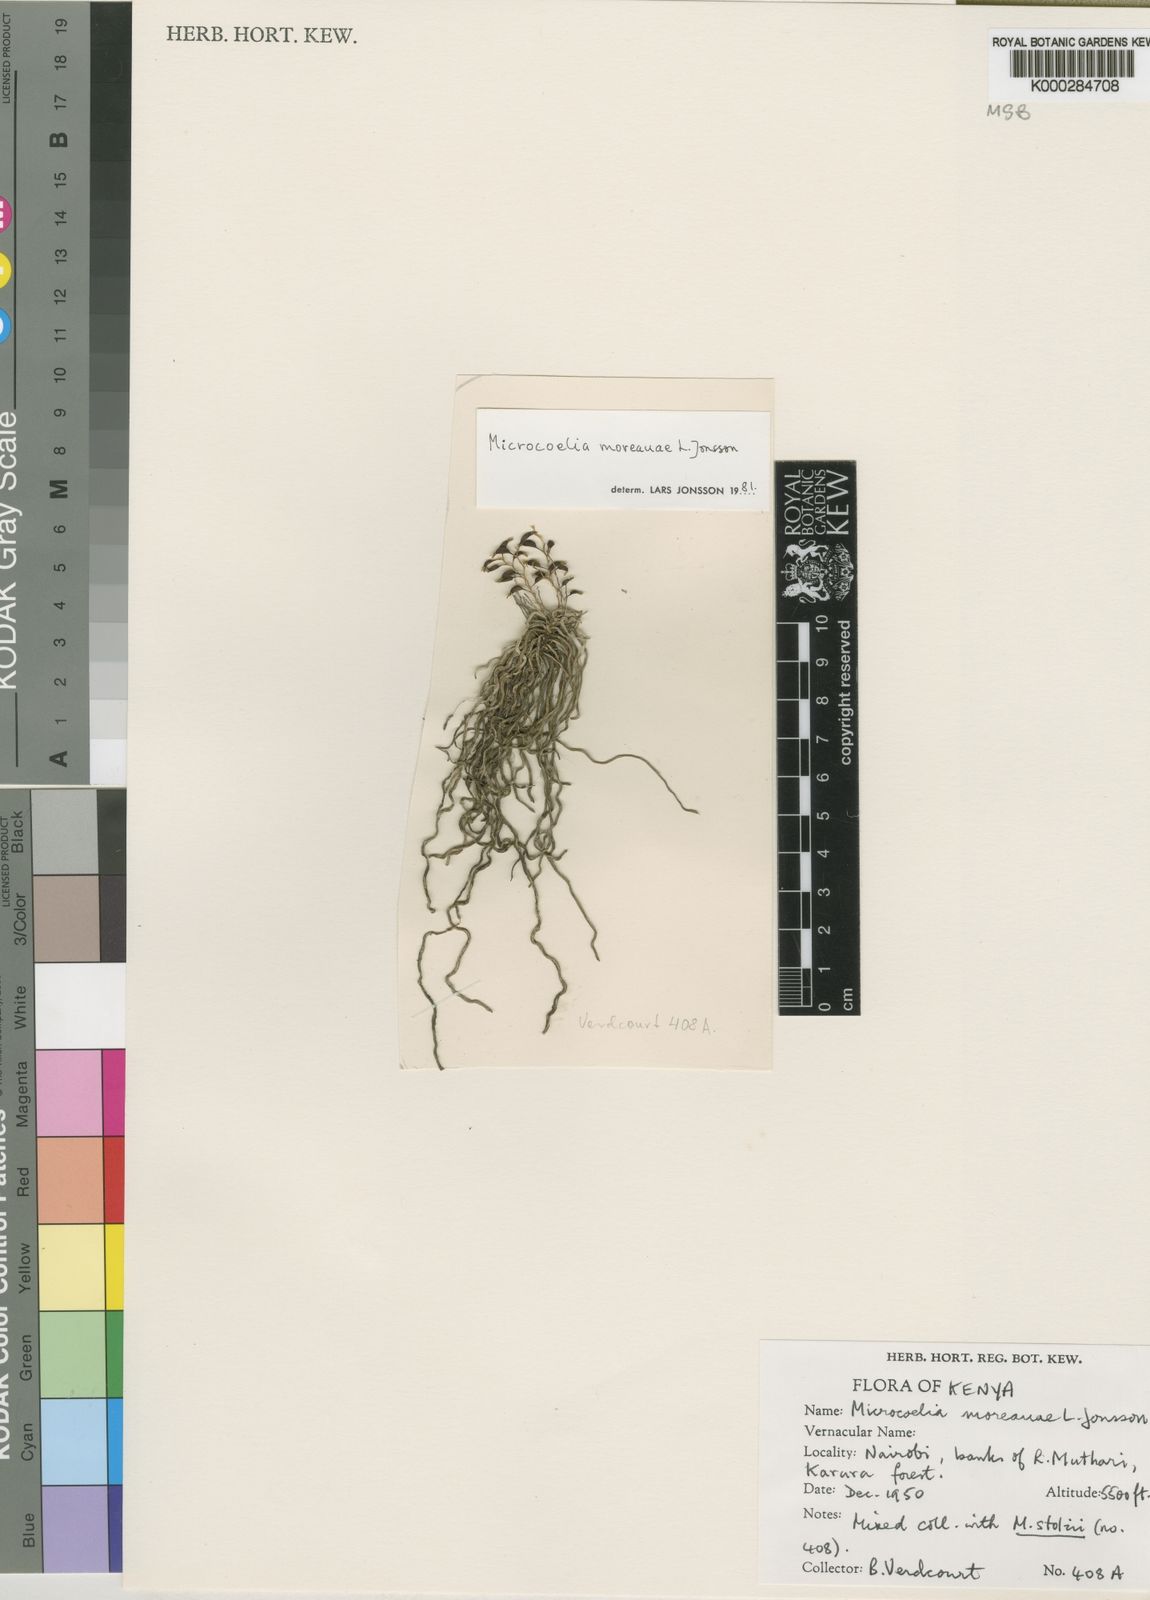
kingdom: Plantae
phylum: Tracheophyta
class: Liliopsida
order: Asparagales
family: Orchidaceae
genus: Microcoelia
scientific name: Microcoelia moreauae
